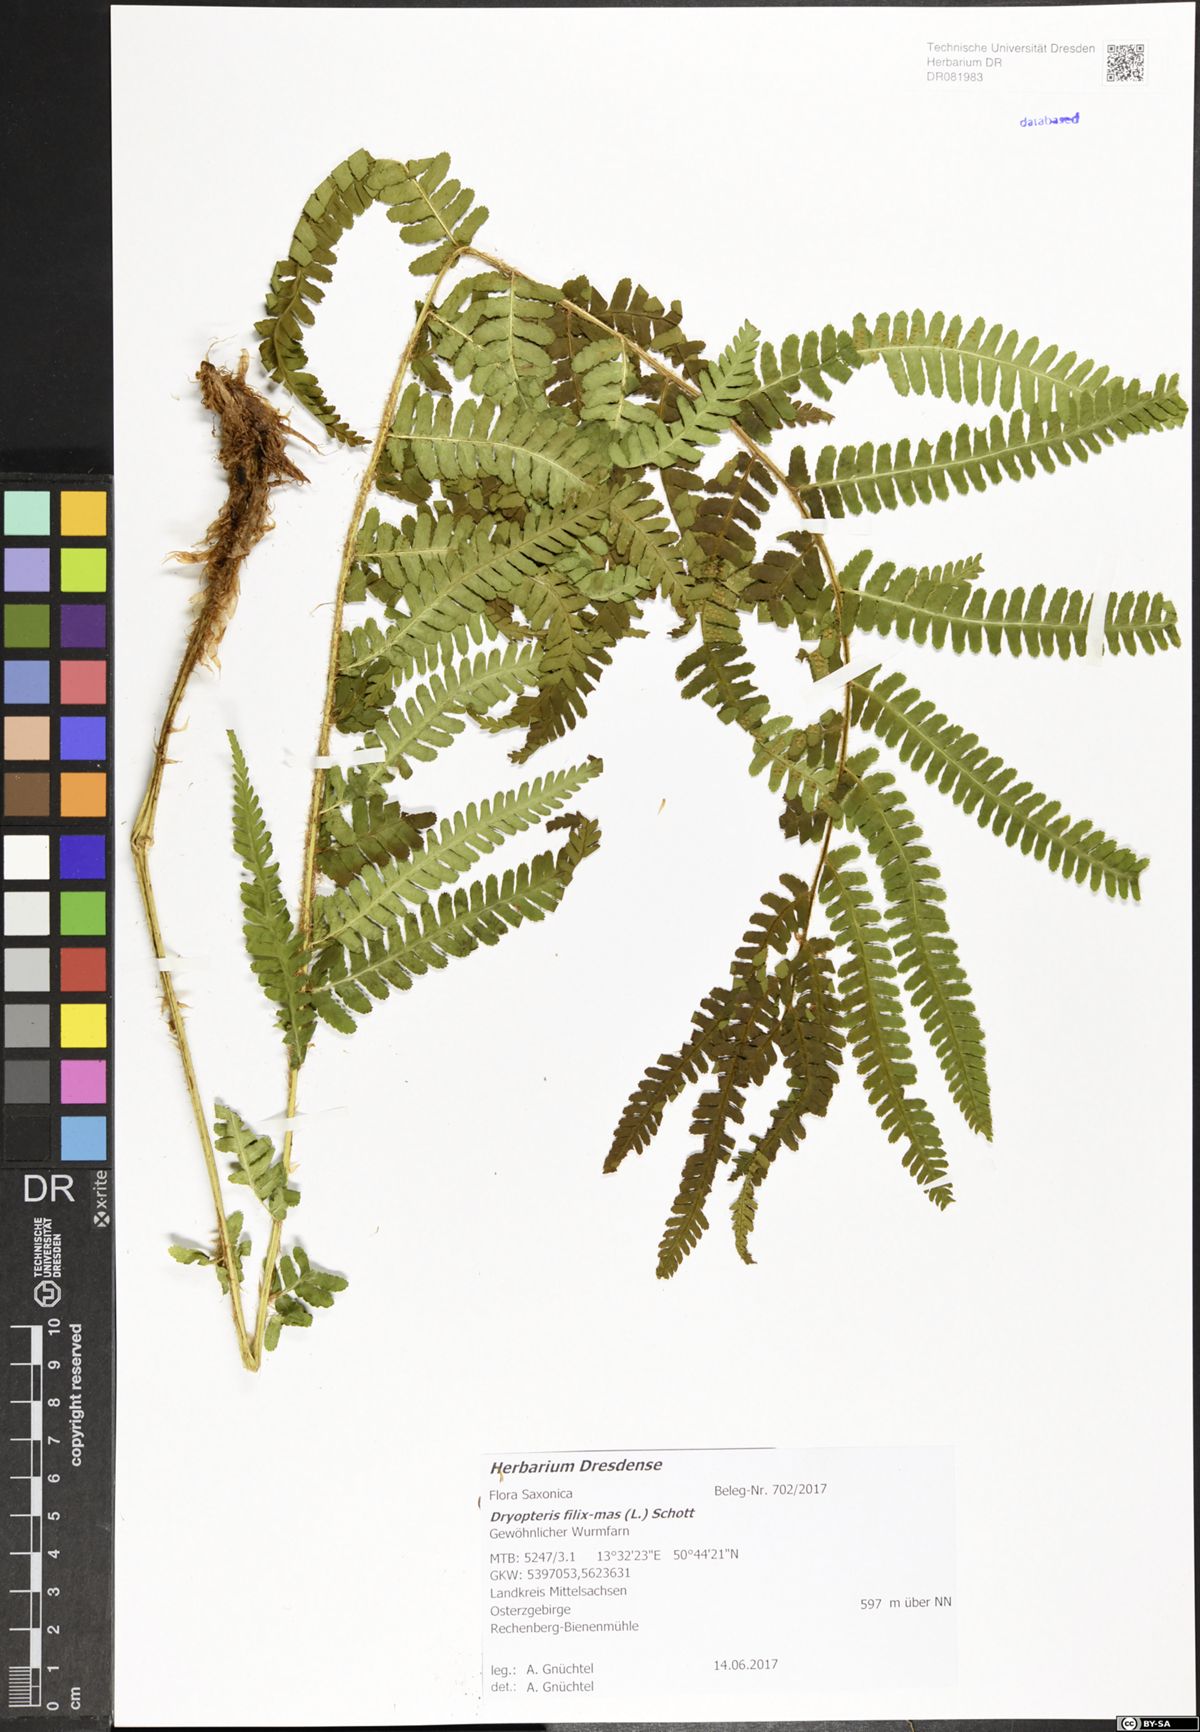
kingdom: Plantae
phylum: Tracheophyta
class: Polypodiopsida
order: Polypodiales
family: Dryopteridaceae
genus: Dryopteris
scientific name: Dryopteris filix-mas
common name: Male fern
